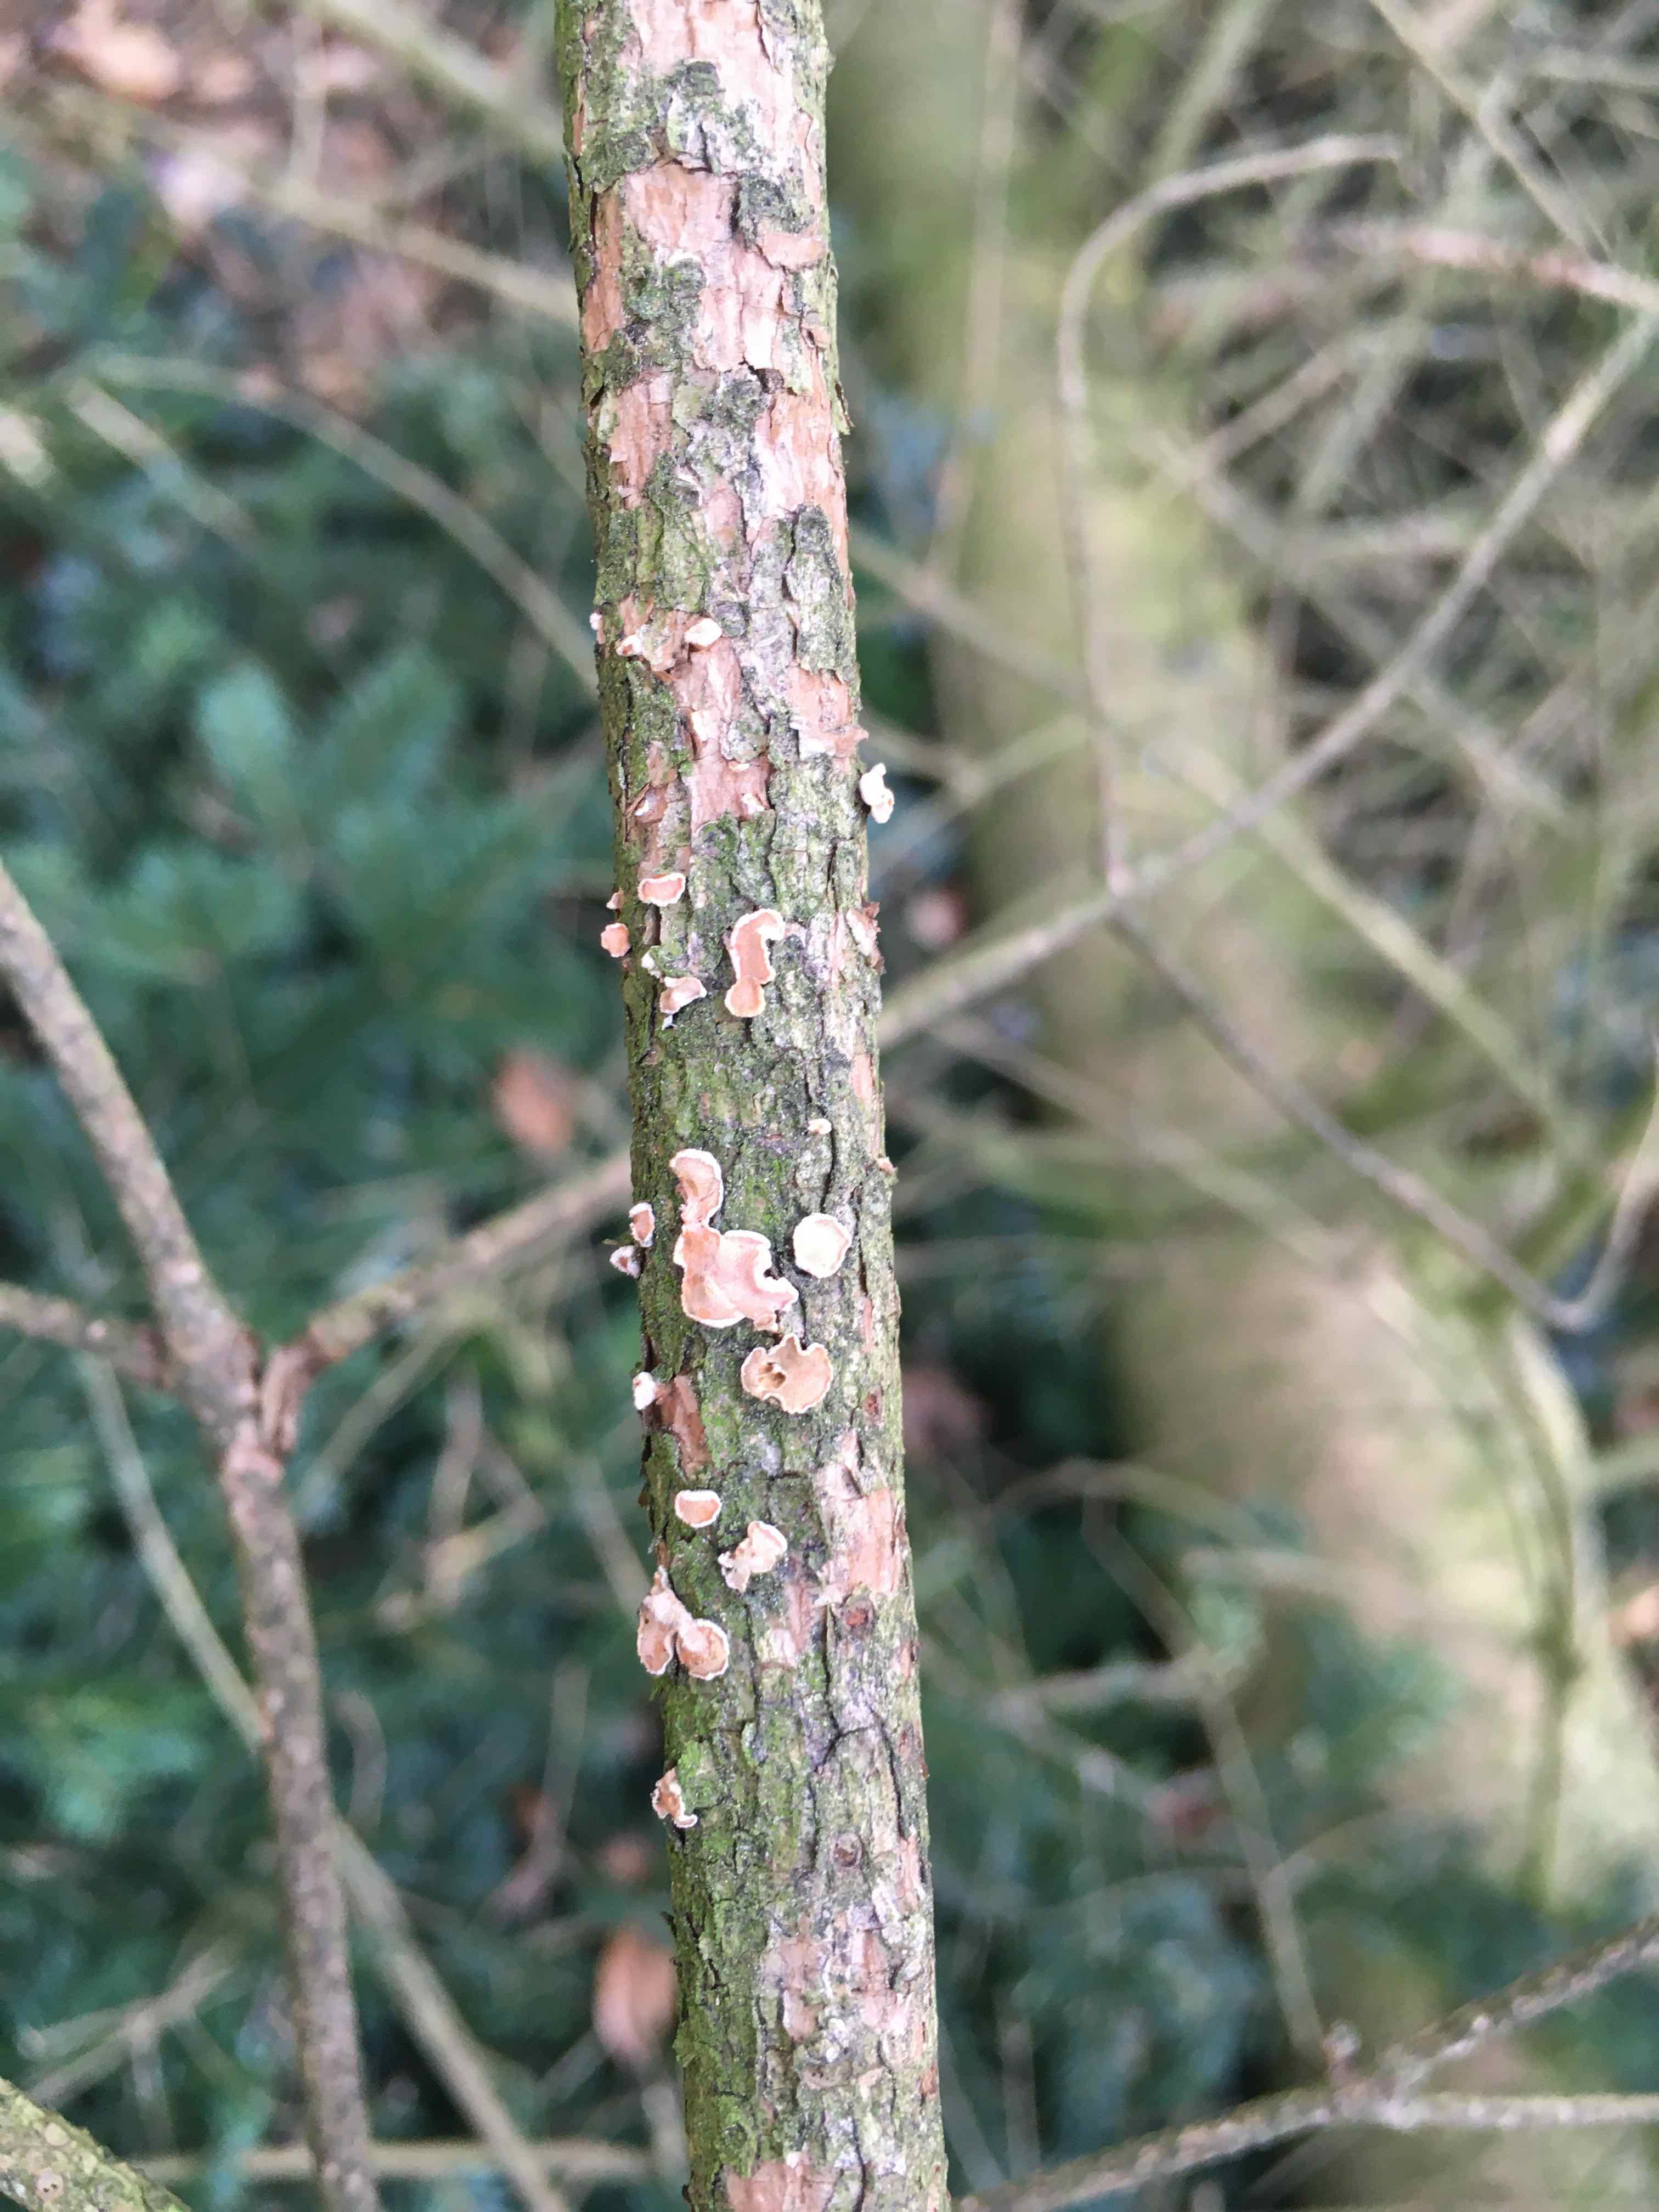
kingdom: Fungi
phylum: Basidiomycota
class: Agaricomycetes
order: Russulales
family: Stereaceae
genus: Aleurodiscus
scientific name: Aleurodiscus amorphus
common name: orange skiveskorpe
